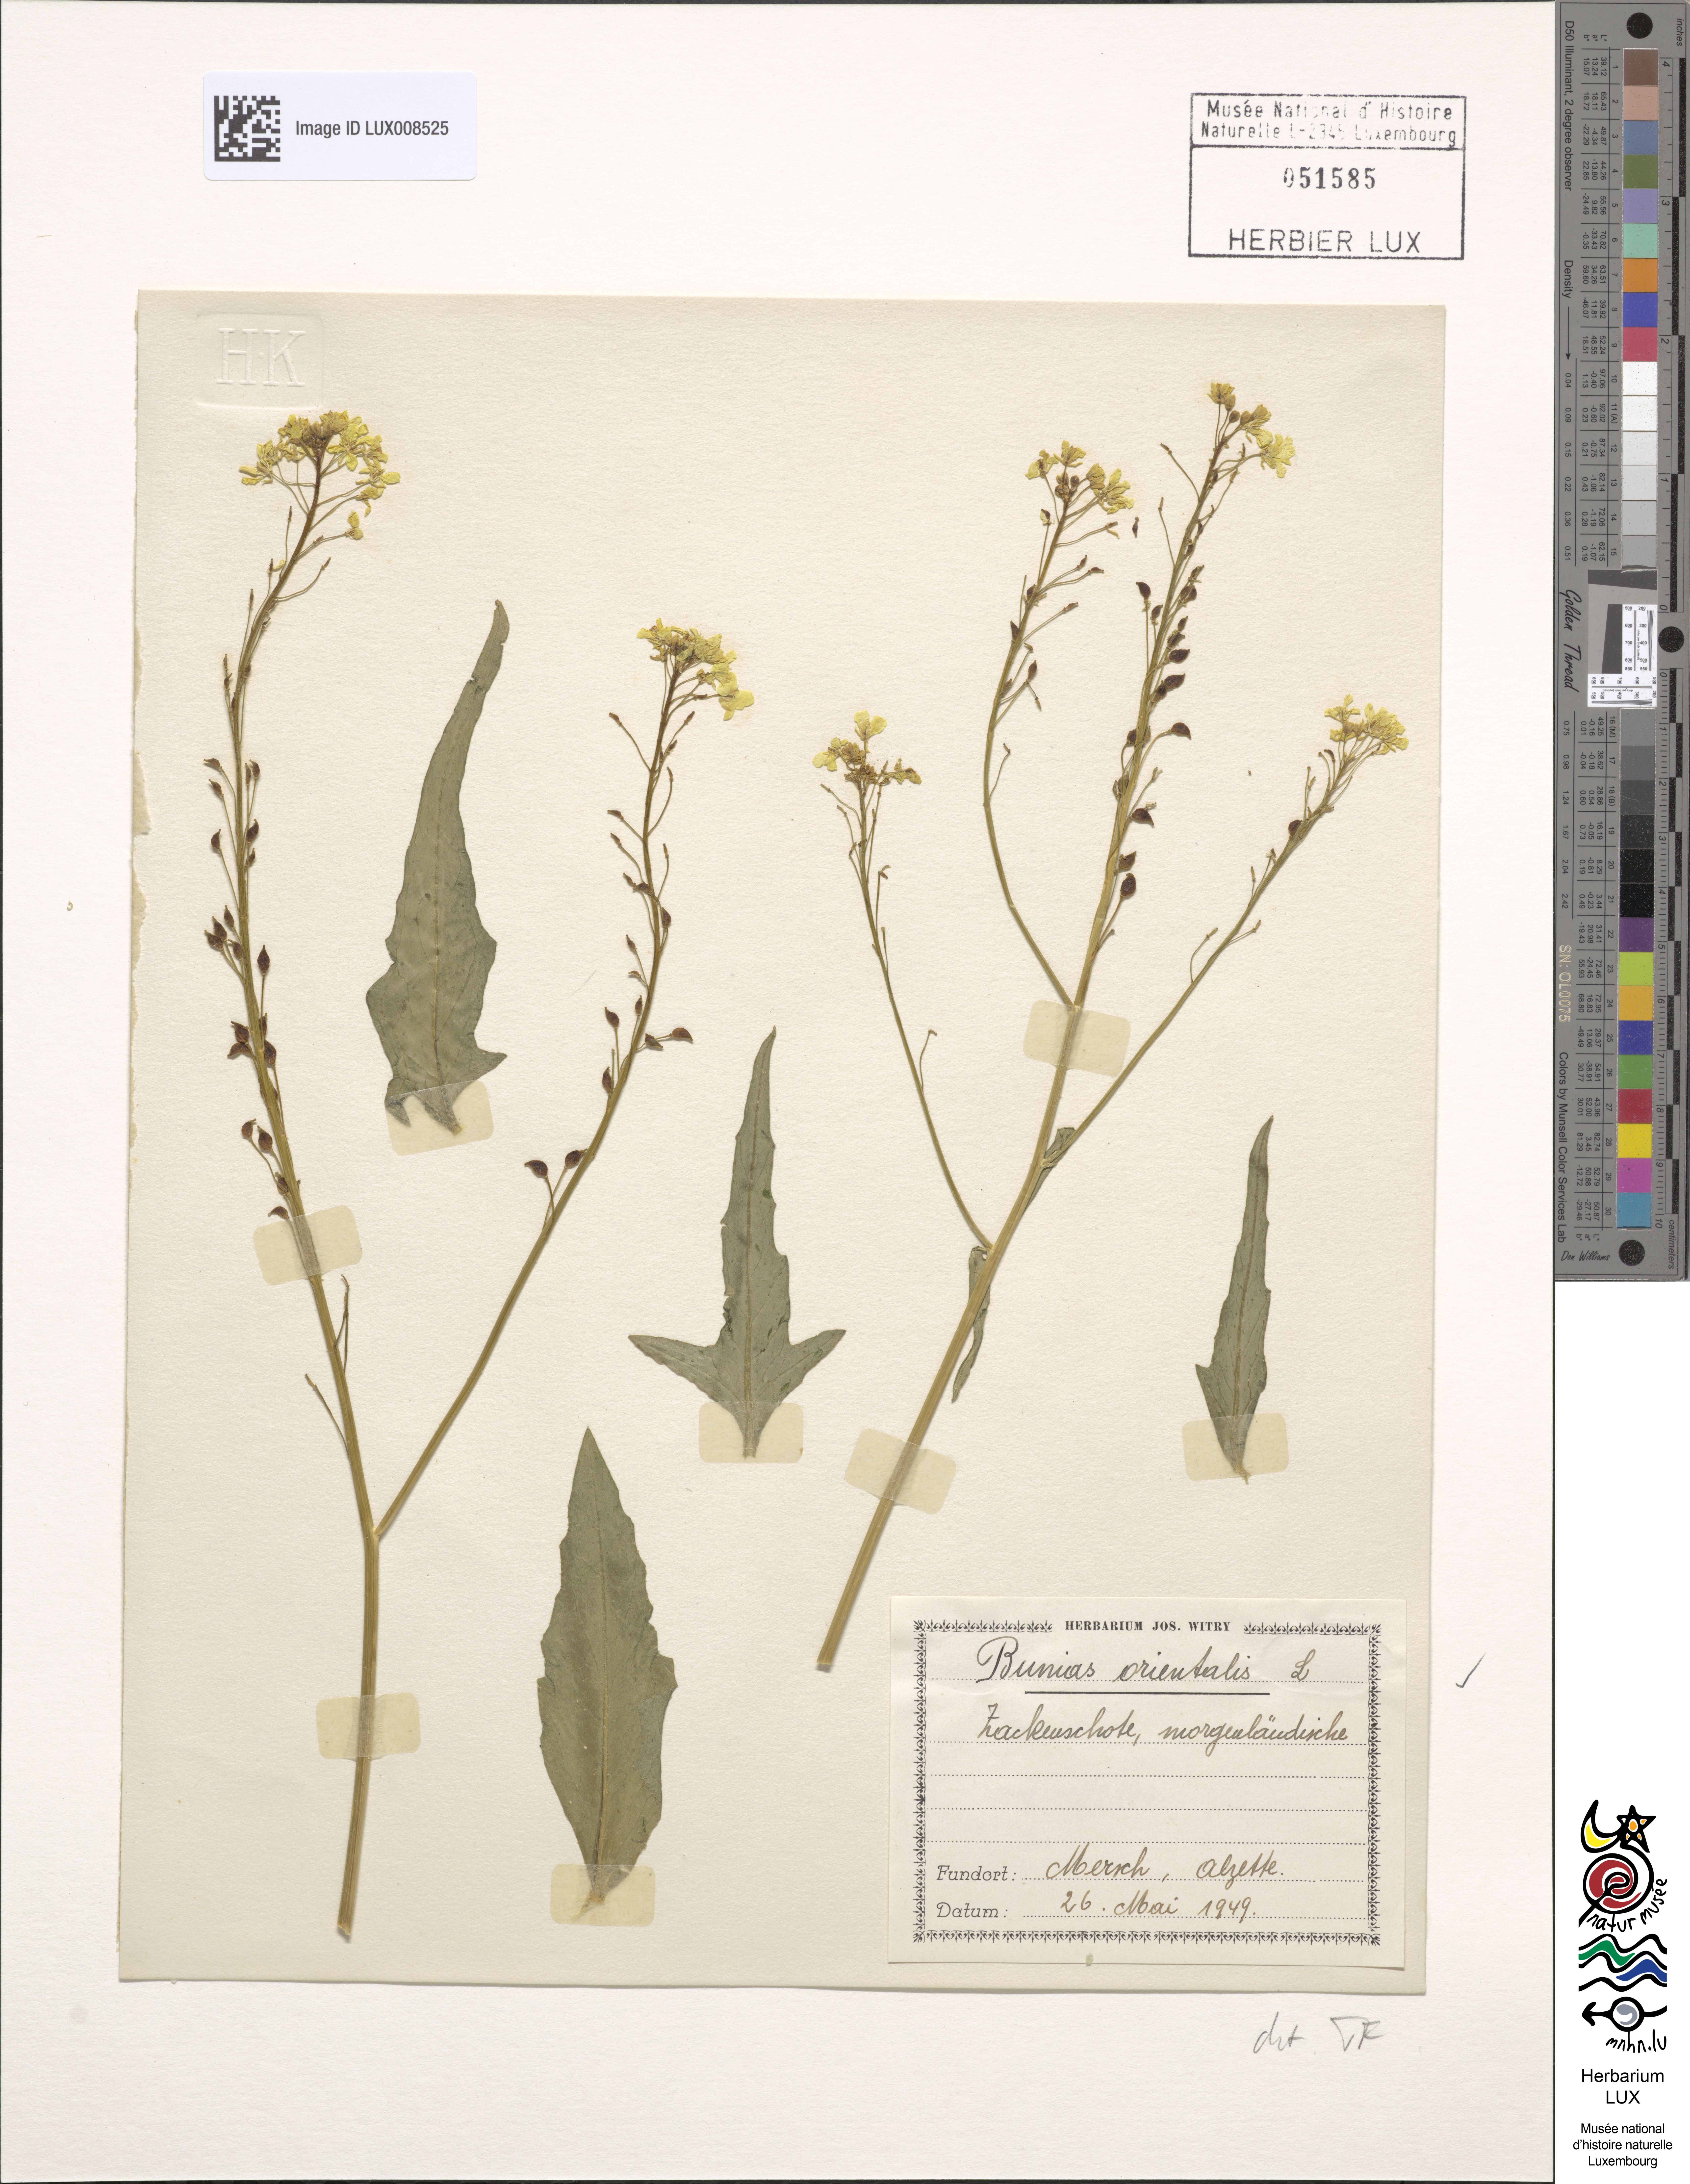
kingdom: Plantae
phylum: Tracheophyta
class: Magnoliopsida
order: Brassicales
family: Brassicaceae
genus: Bunias
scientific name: Bunias orientalis
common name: Warty-cabbage
